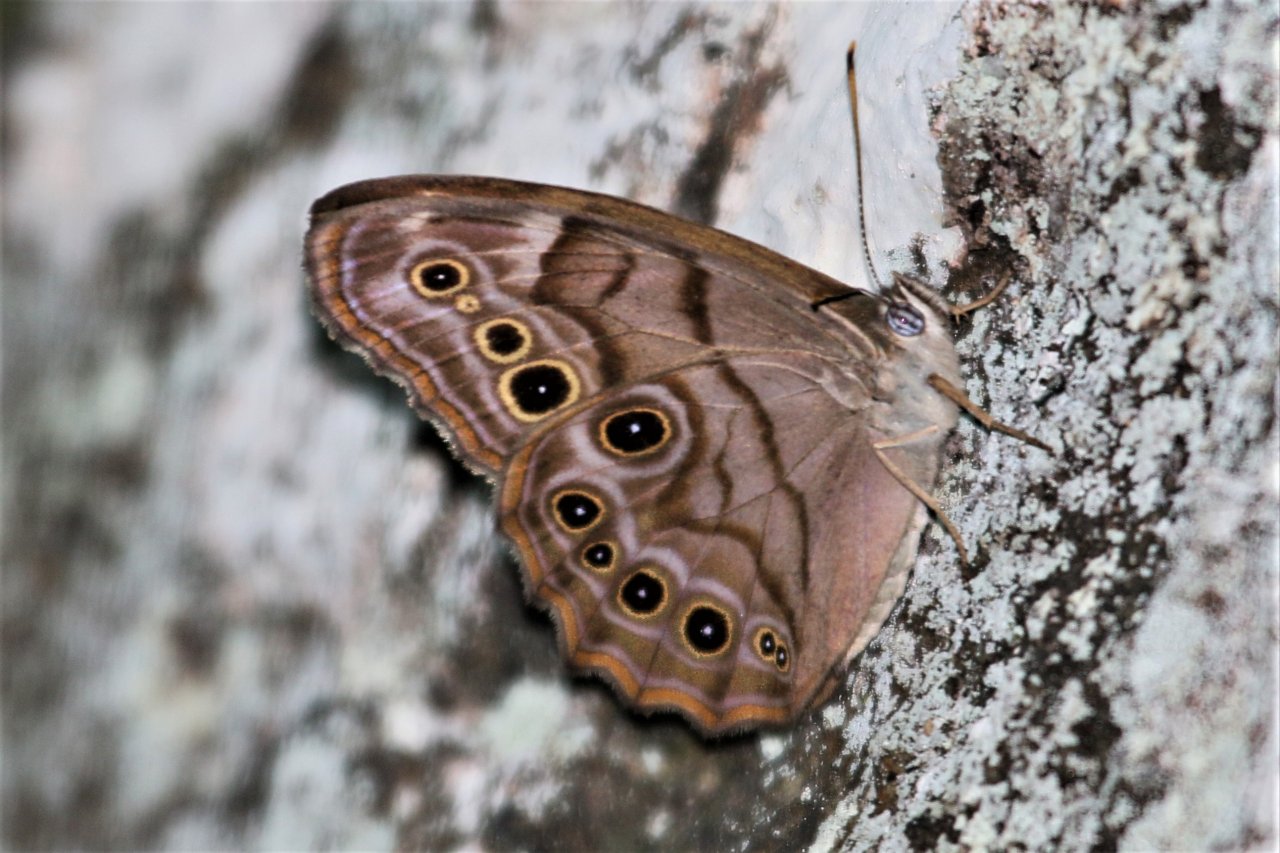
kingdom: Animalia
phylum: Arthropoda
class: Insecta
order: Lepidoptera
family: Nymphalidae
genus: Lethe
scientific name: Lethe anthedon
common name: Northern Pearly-Eye
